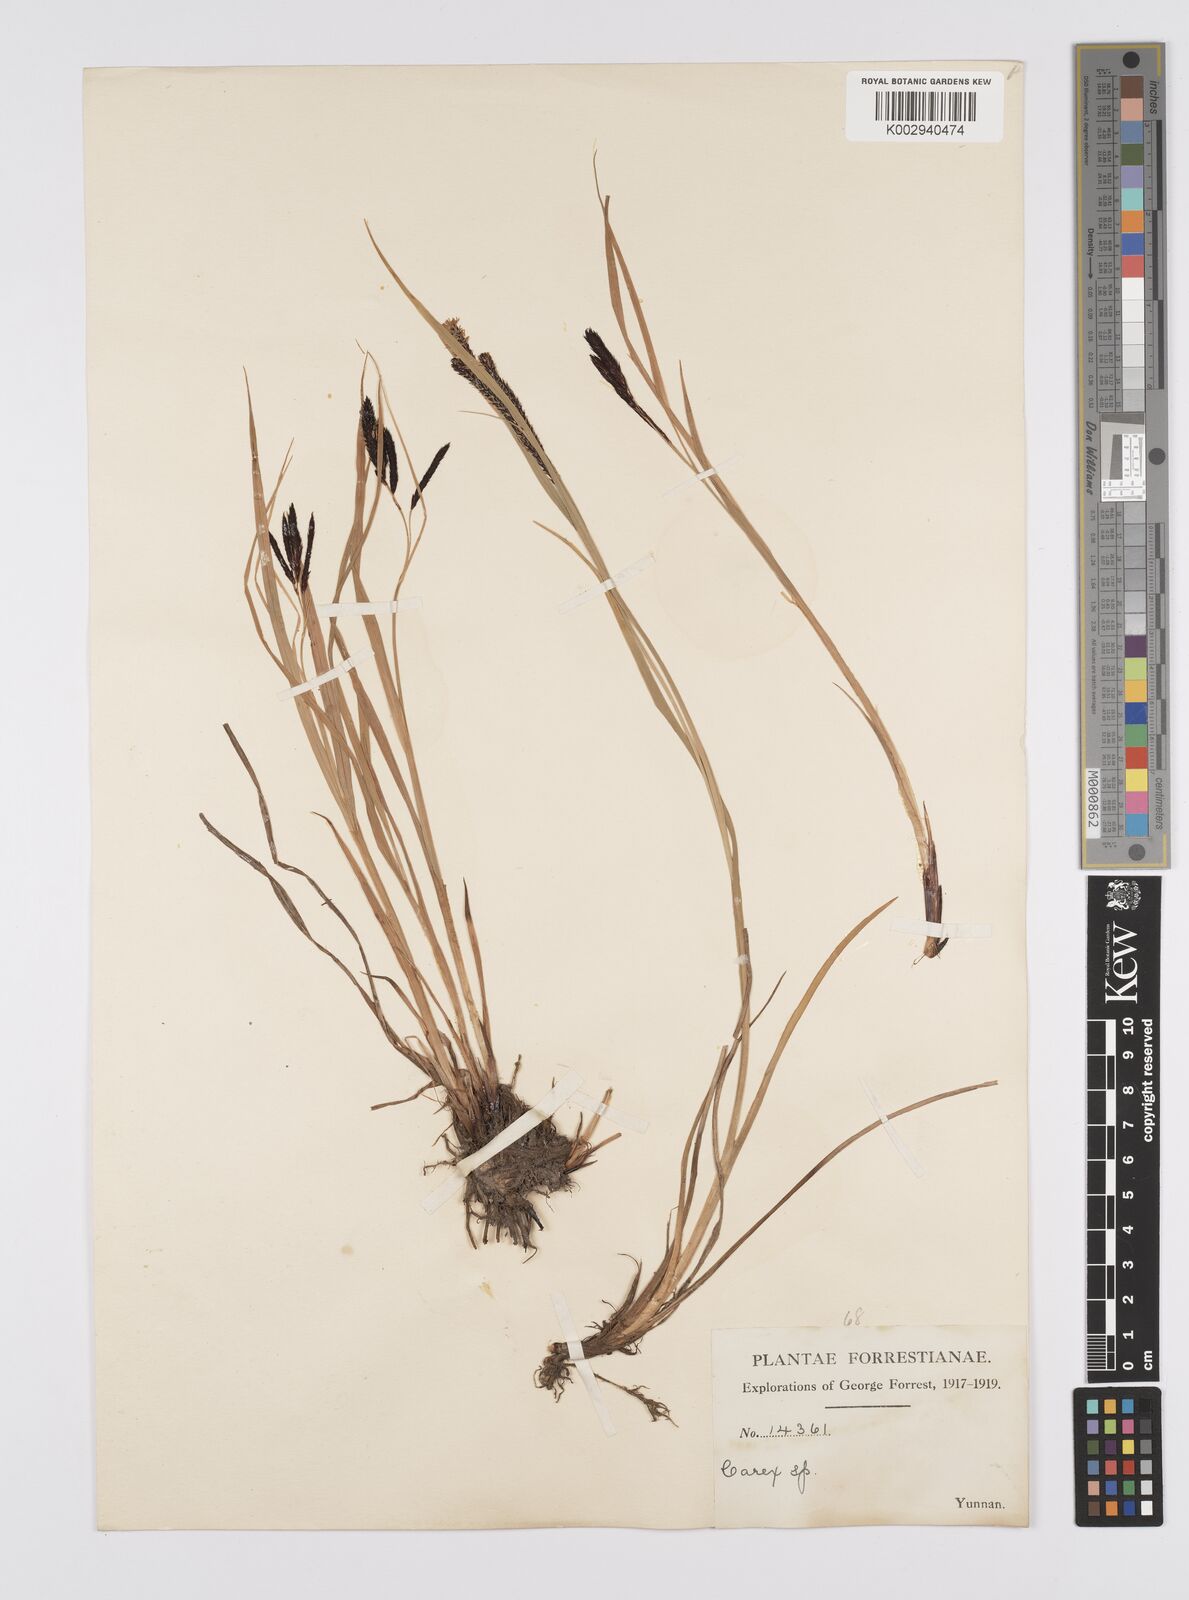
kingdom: Plantae
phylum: Tracheophyta
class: Liliopsida
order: Poales
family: Cyperaceae
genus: Carex
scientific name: Carex buxbaumii
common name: Club sedge
